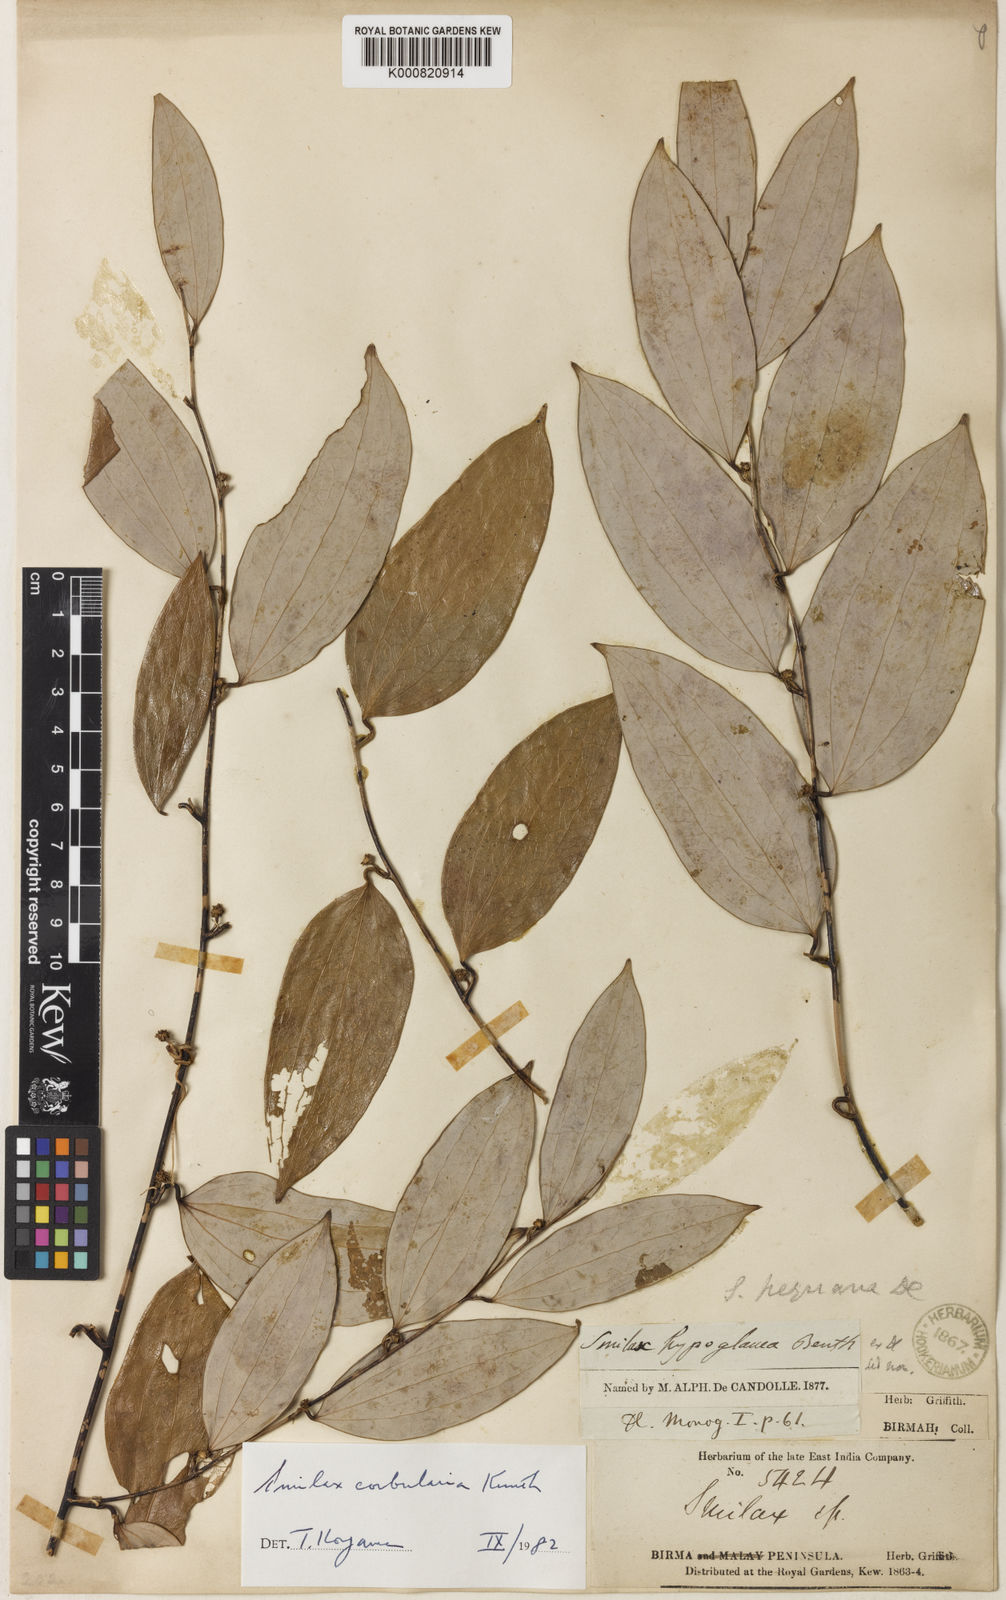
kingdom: Plantae
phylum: Tracheophyta
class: Liliopsida
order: Liliales
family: Smilacaceae
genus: Smilax
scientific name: Smilax corbularia
